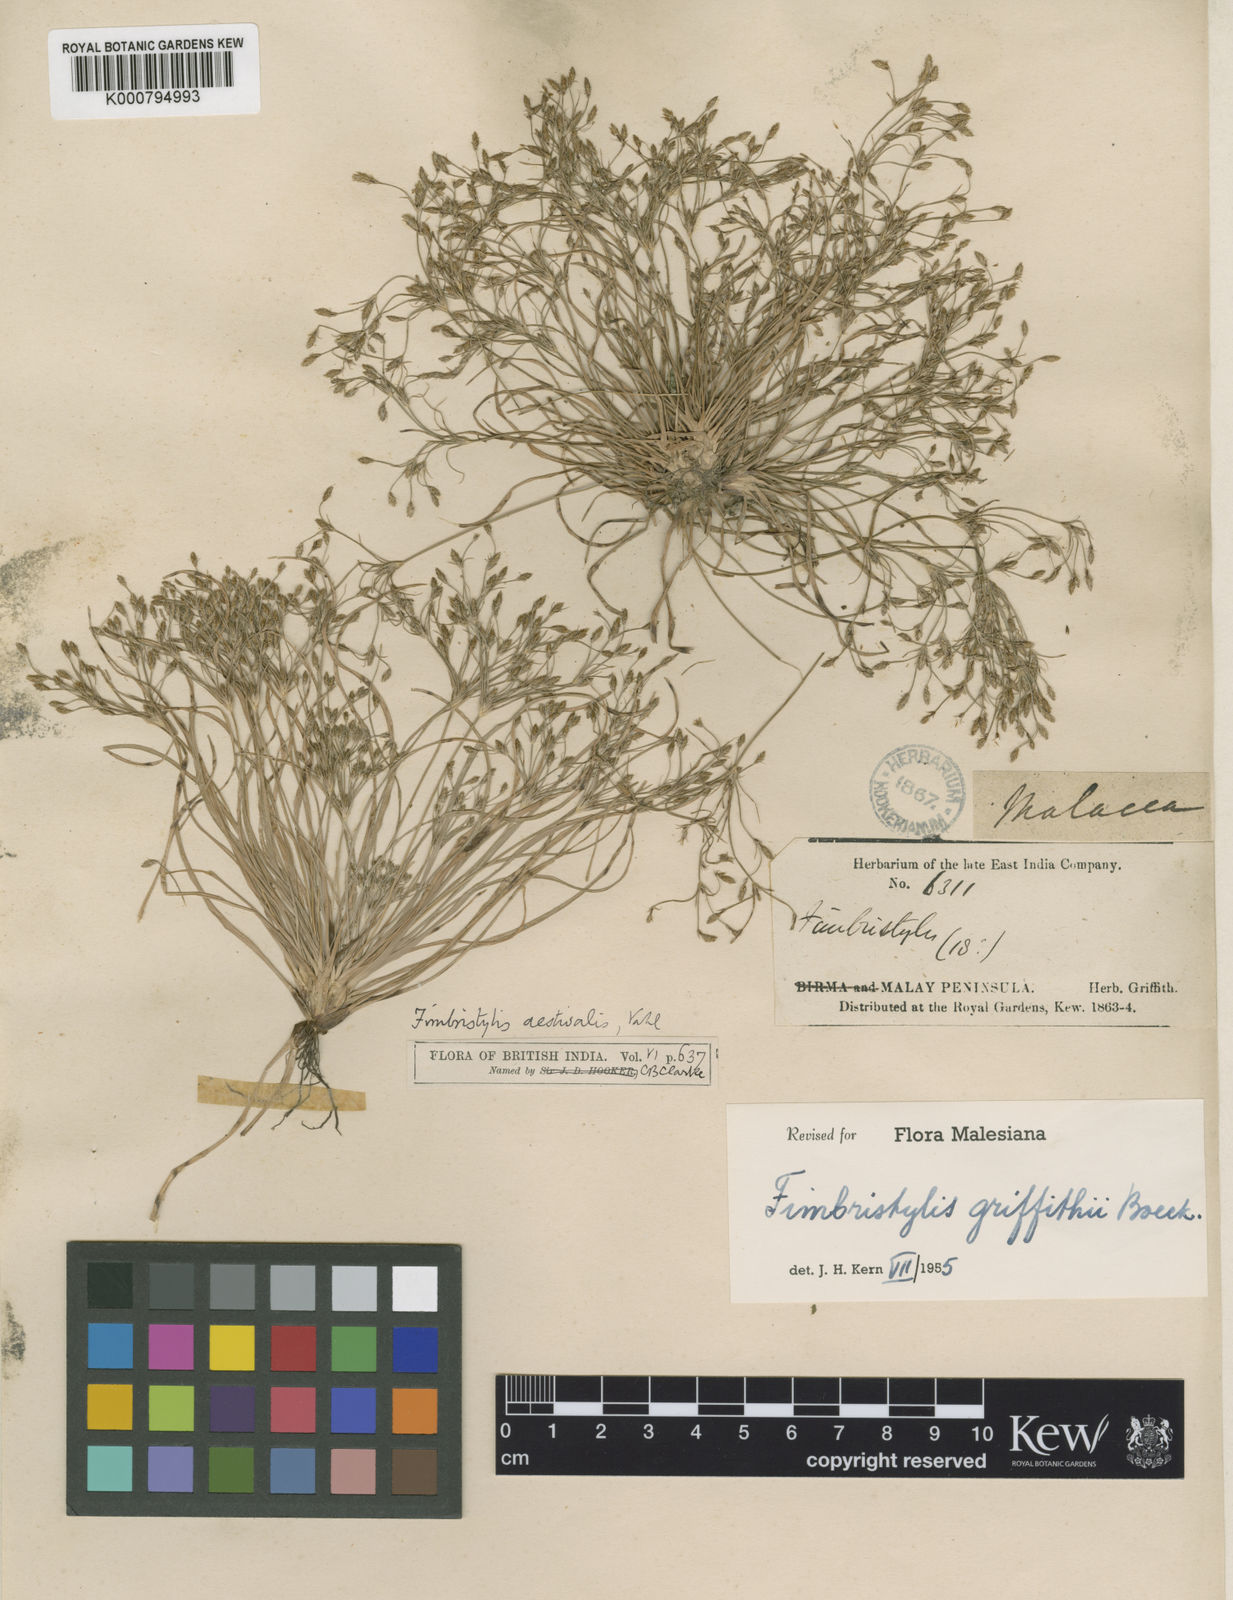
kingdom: Plantae
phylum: Tracheophyta
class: Liliopsida
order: Poales
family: Cyperaceae
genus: Fimbristylis
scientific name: Fimbristylis griffithii
